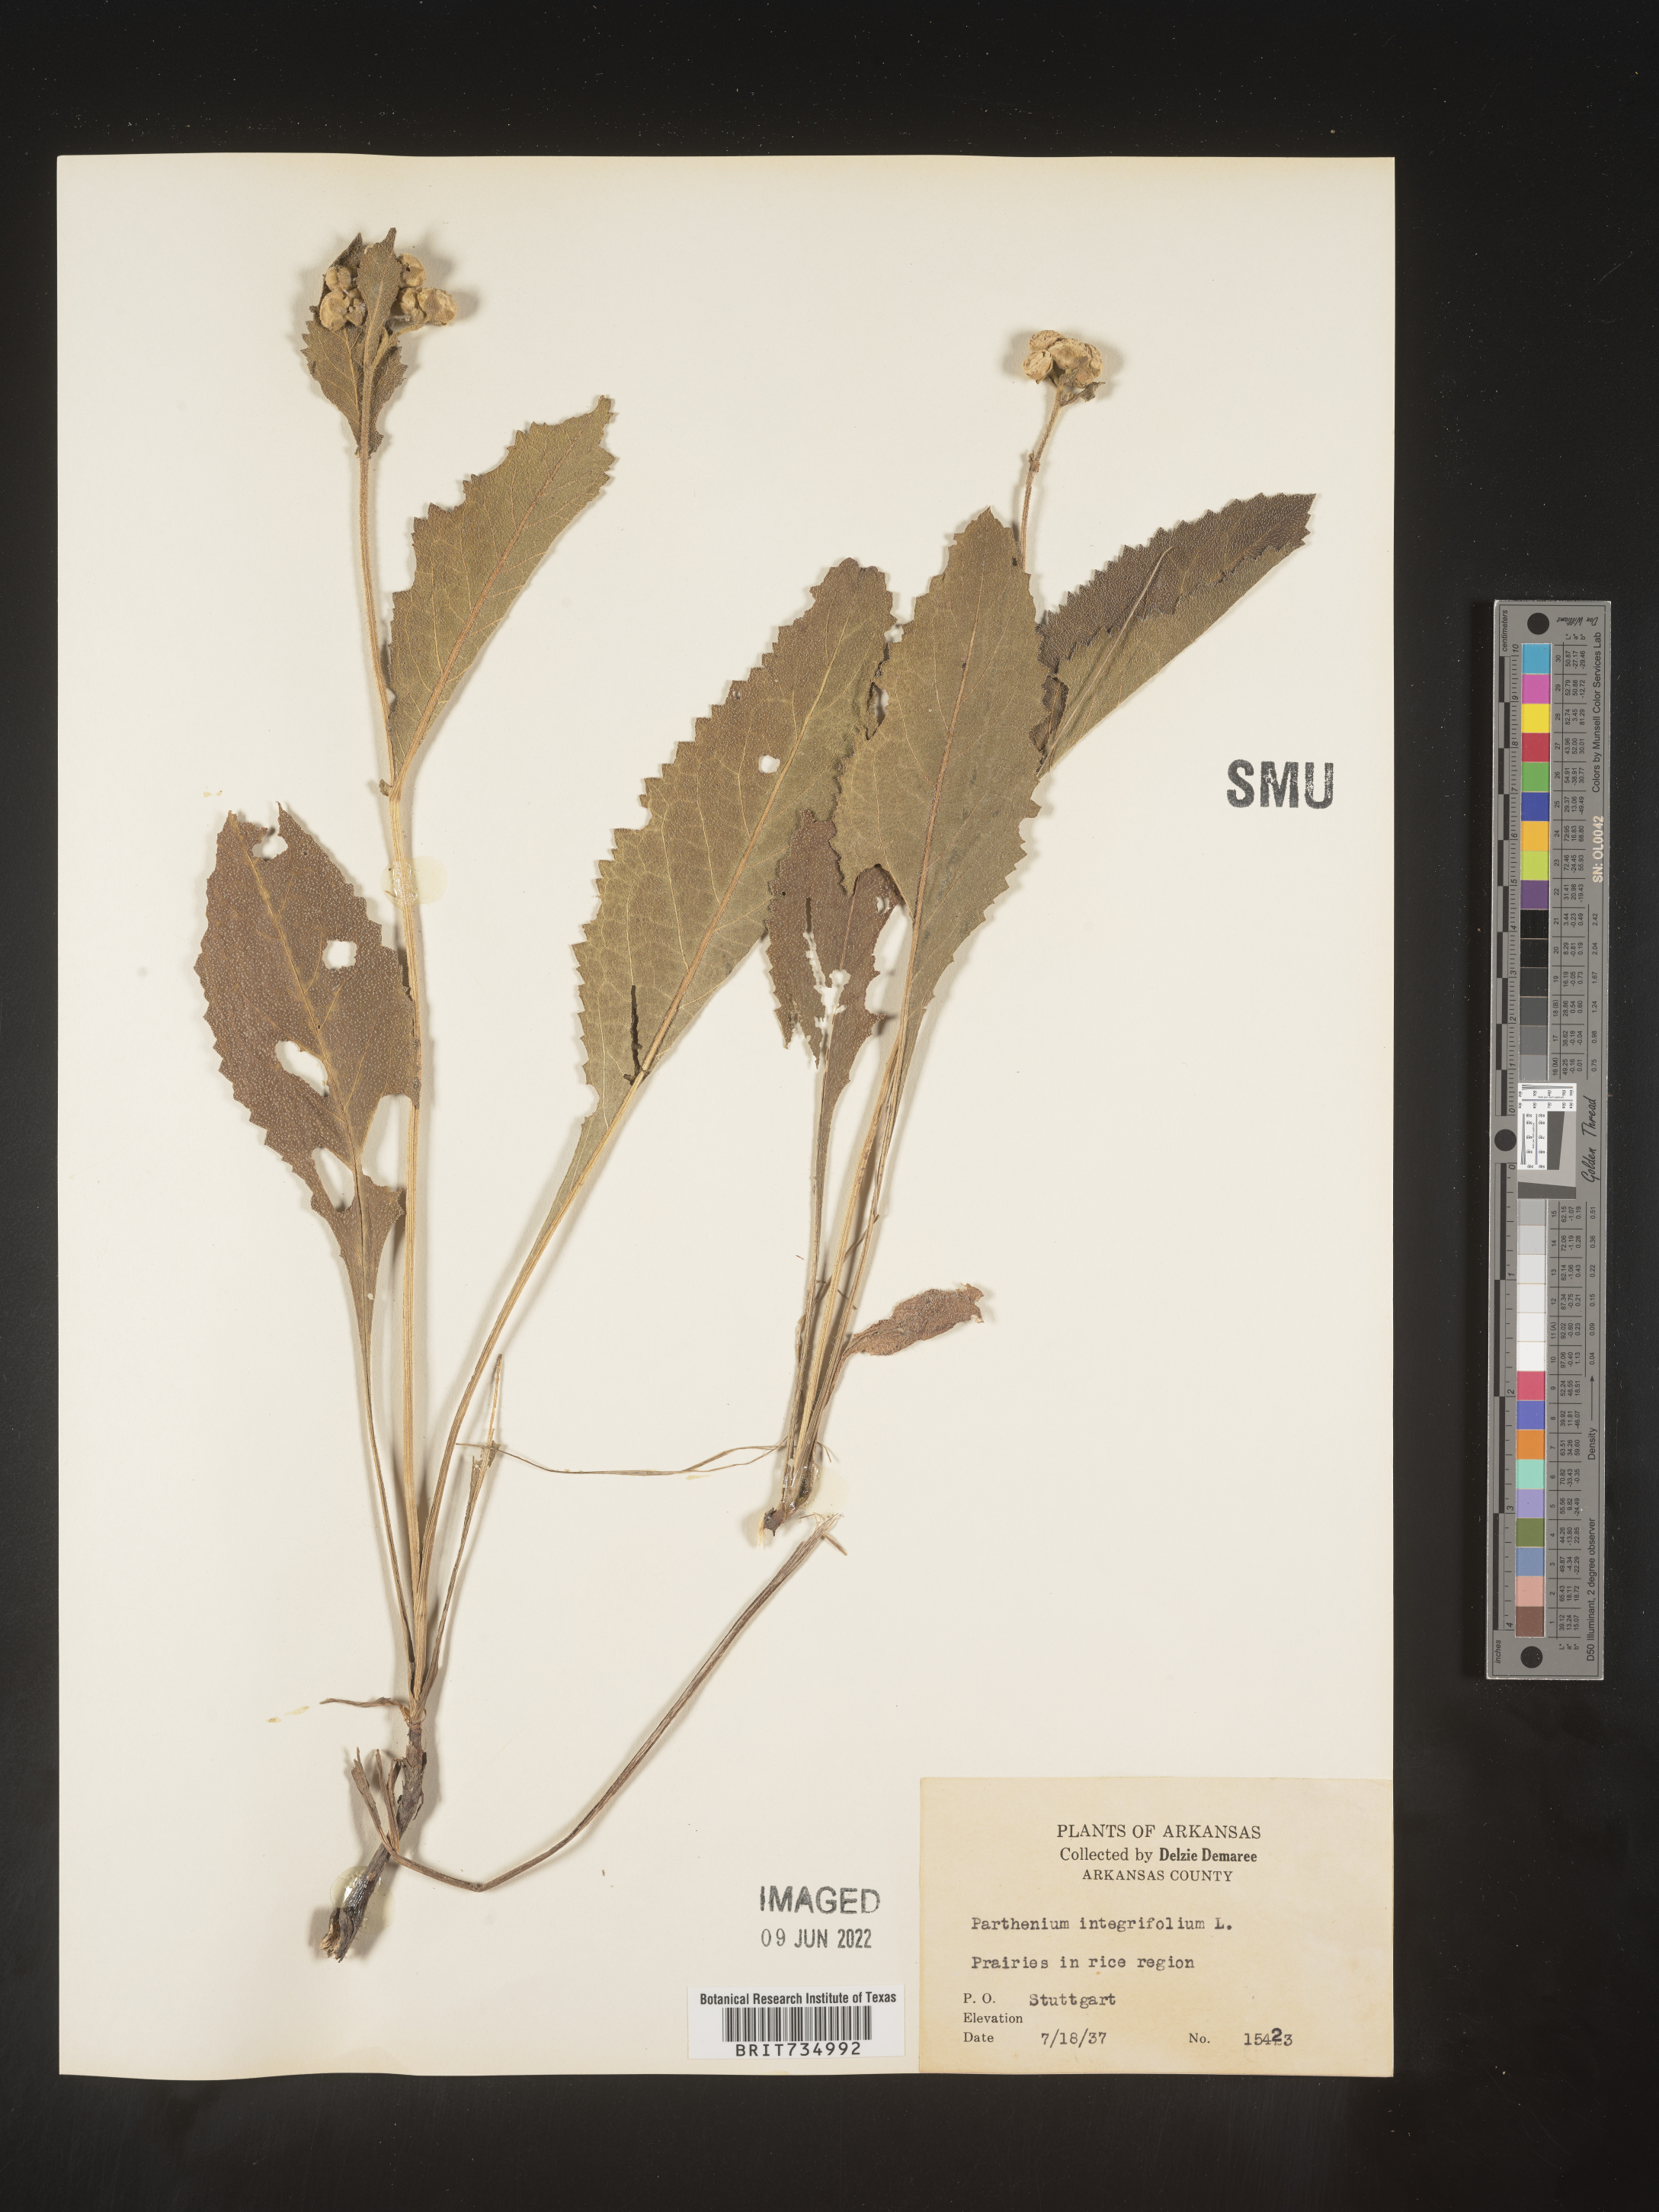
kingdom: Plantae
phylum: Tracheophyta
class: Magnoliopsida
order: Asterales
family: Asteraceae
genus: Parthenium
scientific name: Parthenium hispidum
